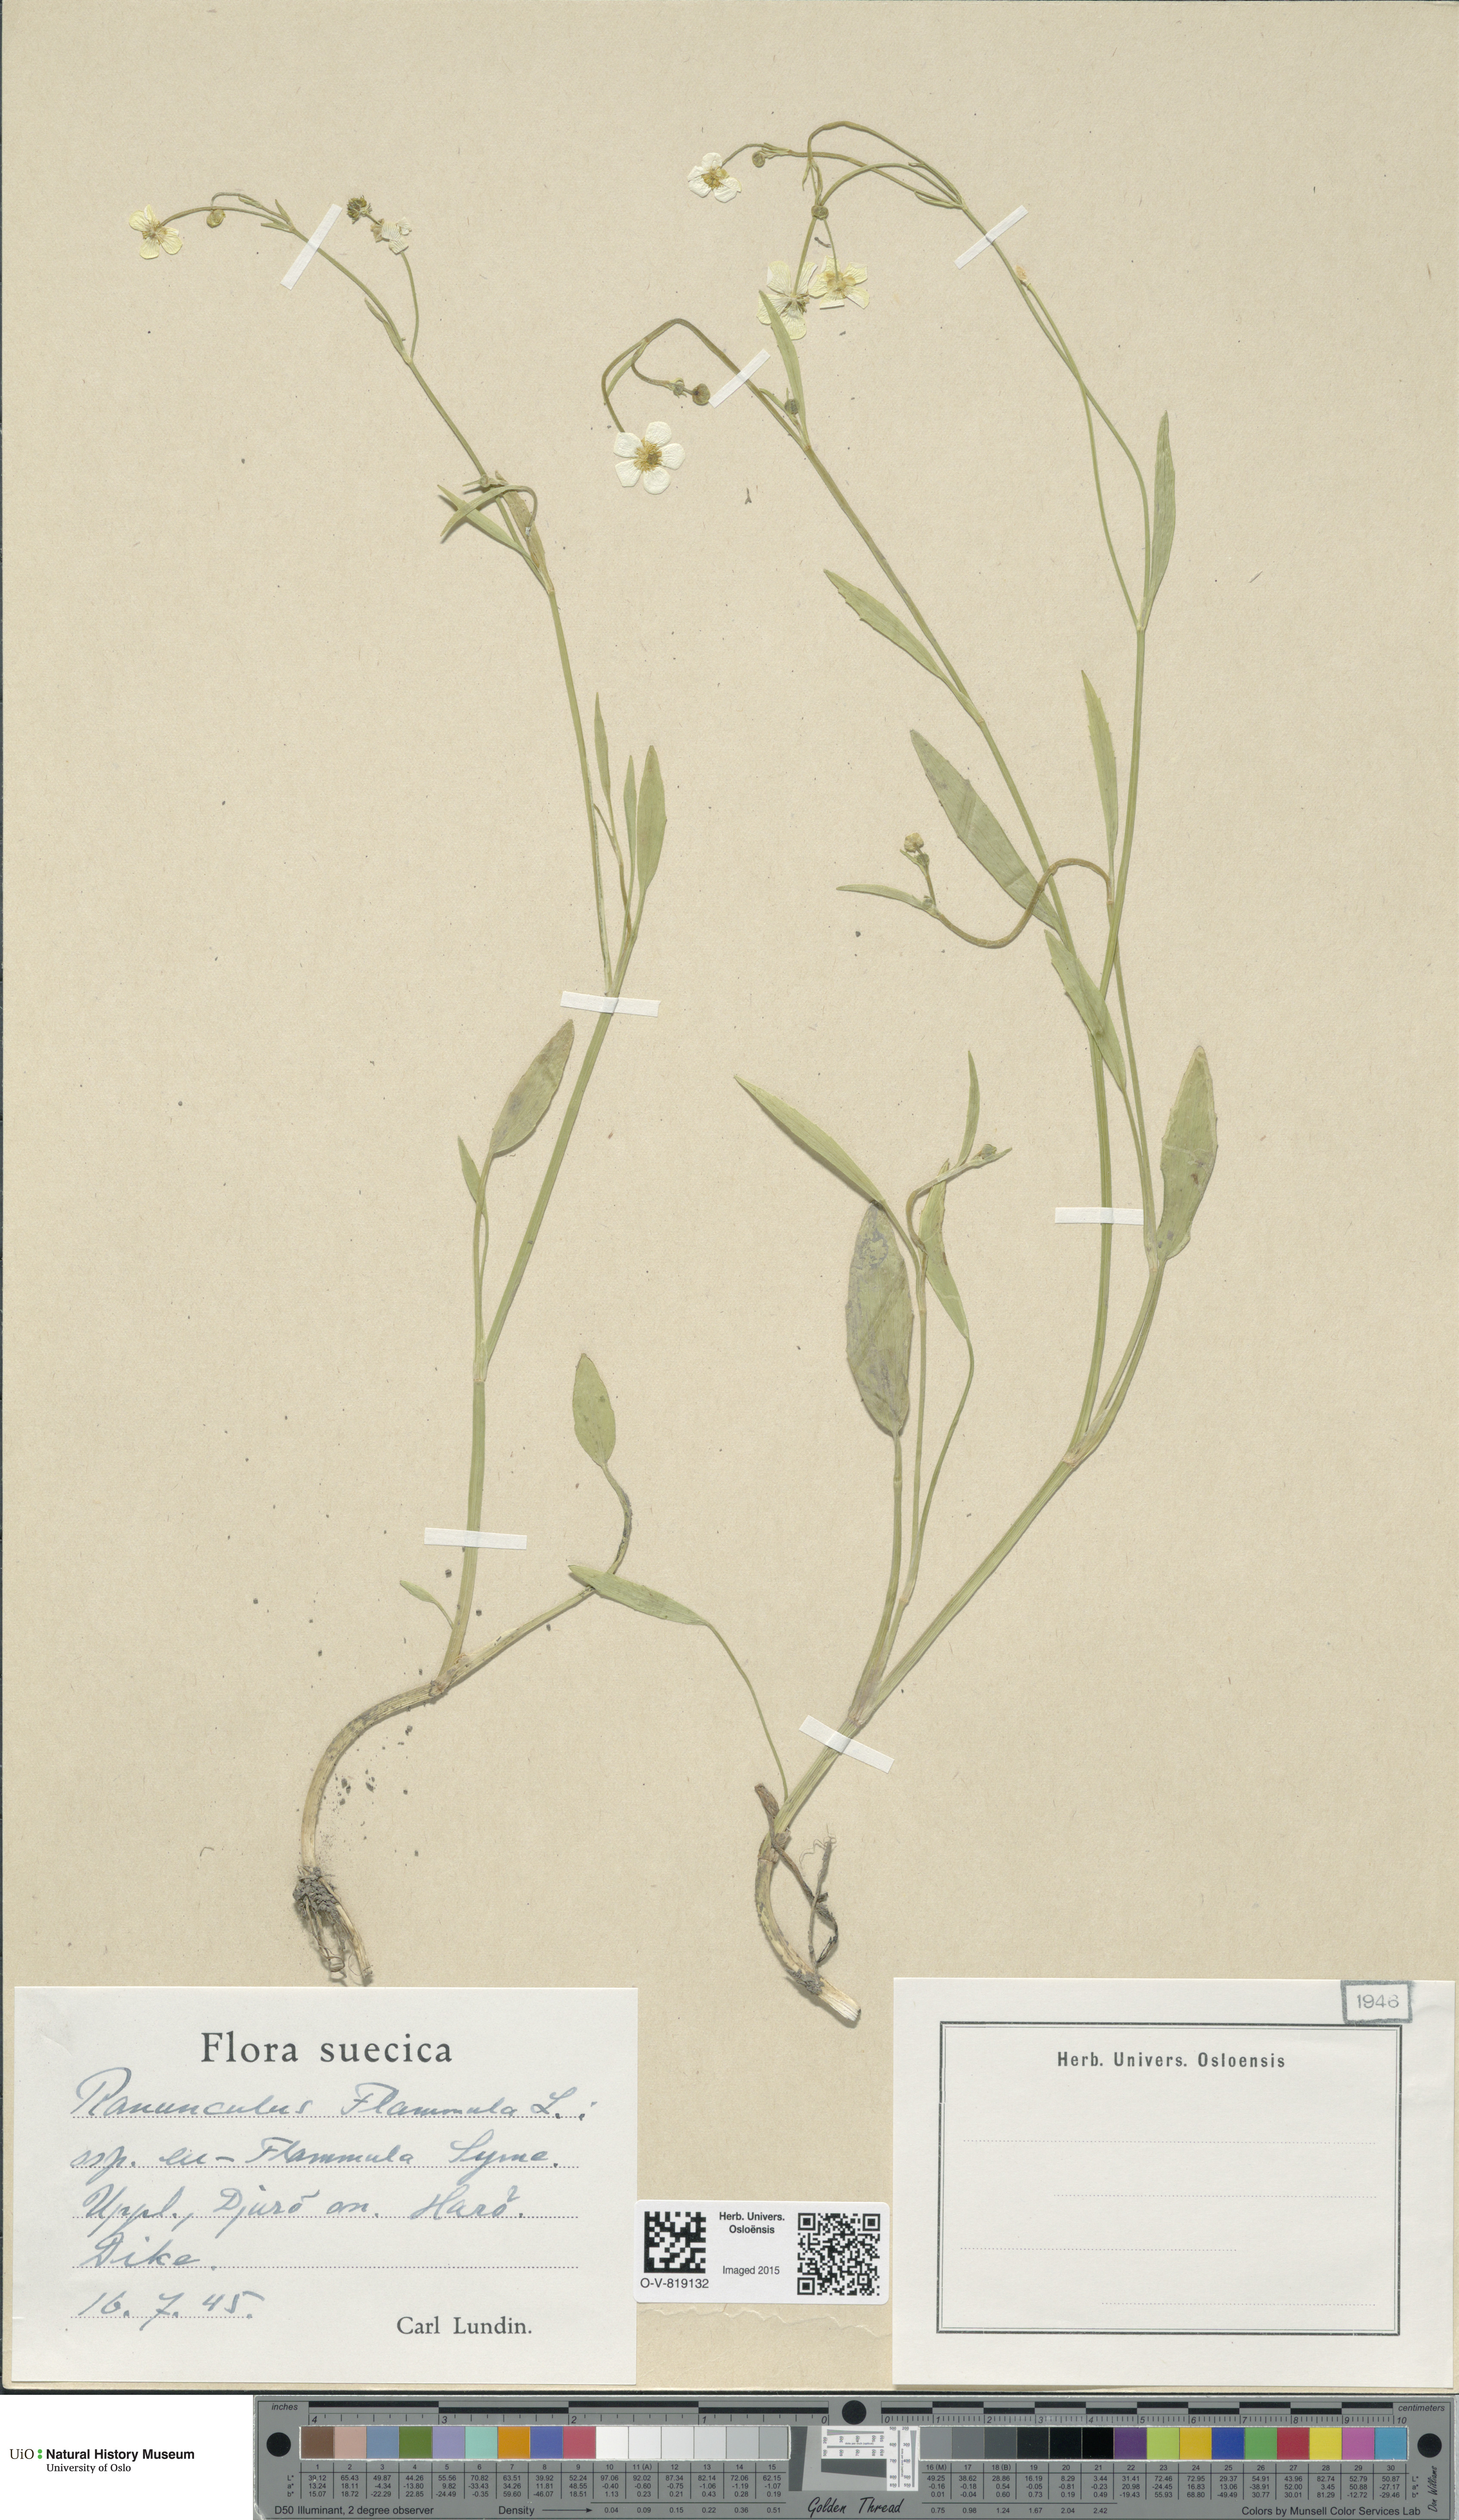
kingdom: Plantae
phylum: Tracheophyta
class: Magnoliopsida
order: Ranunculales
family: Ranunculaceae
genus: Ranunculus
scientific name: Ranunculus flammula
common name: Lesser spearwort
